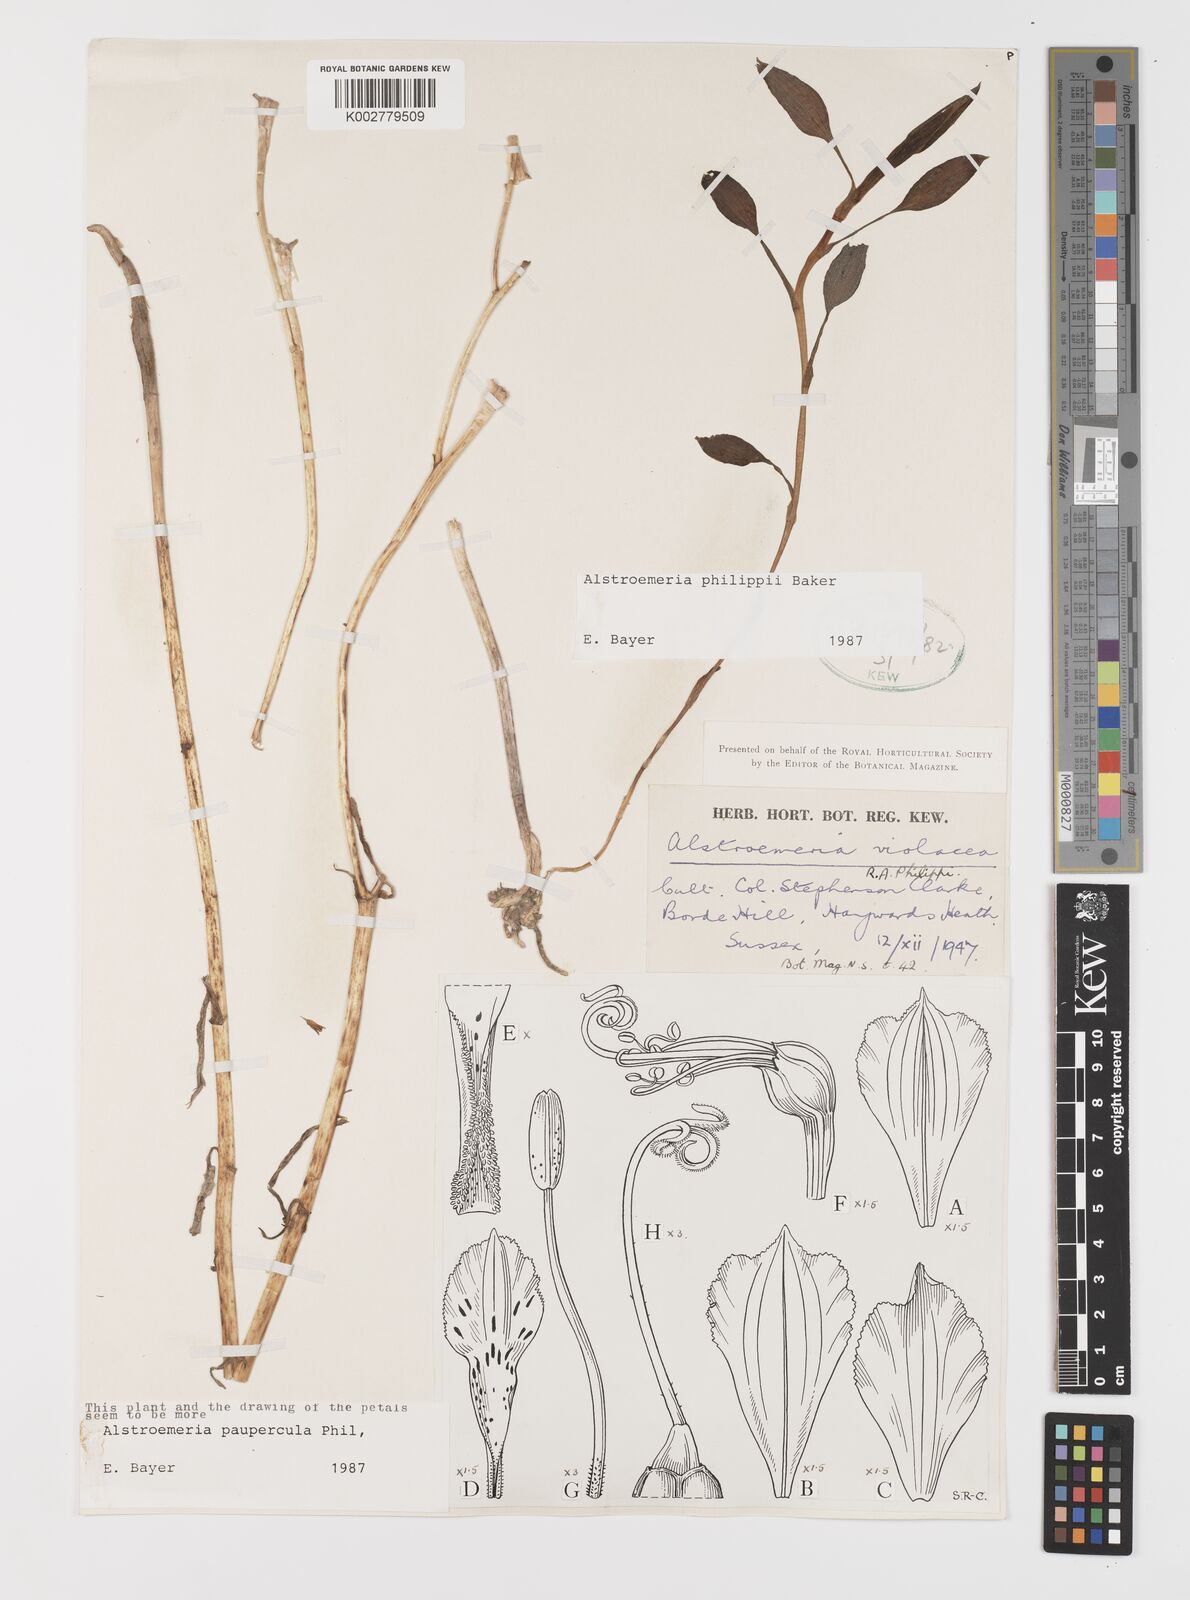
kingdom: Plantae
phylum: Tracheophyta
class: Liliopsida
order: Liliales
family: Alstroemeriaceae
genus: Alstroemeria
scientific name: Alstroemeria philippii
